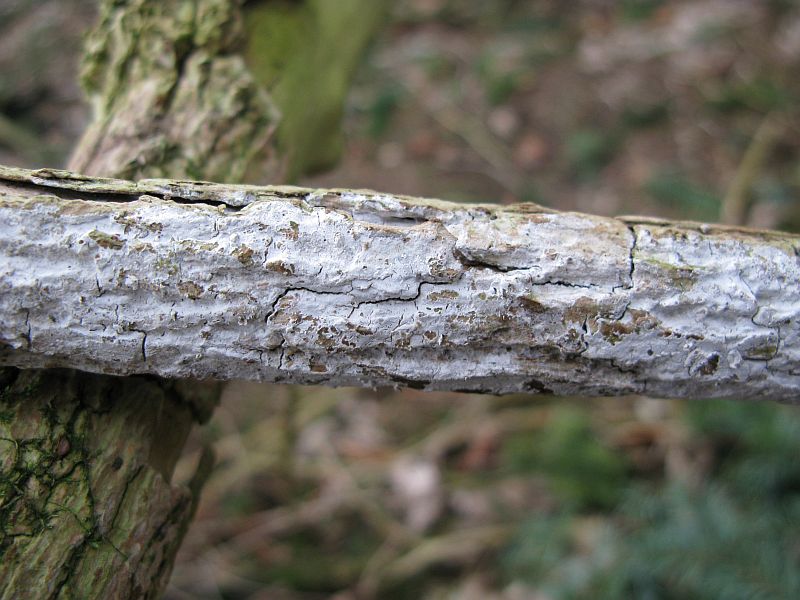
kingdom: Fungi
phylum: Basidiomycota
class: Agaricomycetes
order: Corticiales
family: Corticiaceae
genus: Lyomyces
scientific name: Lyomyces sambuci
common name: almindelig hyldehinde
